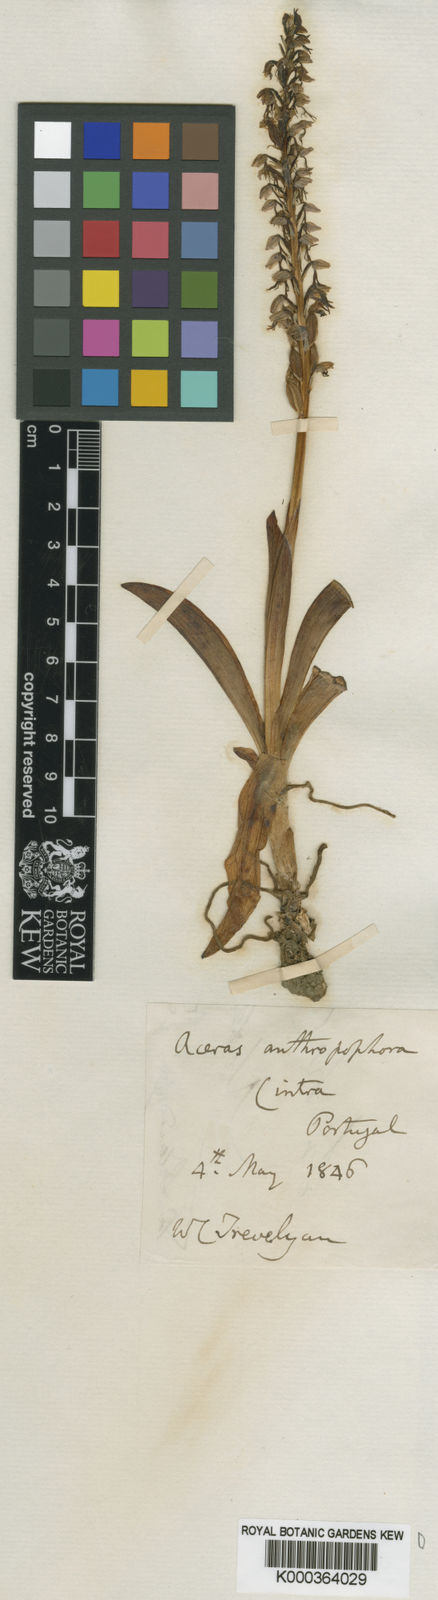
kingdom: Plantae
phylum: Tracheophyta
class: Liliopsida
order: Asparagales
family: Orchidaceae
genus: Orchis
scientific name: Orchis
